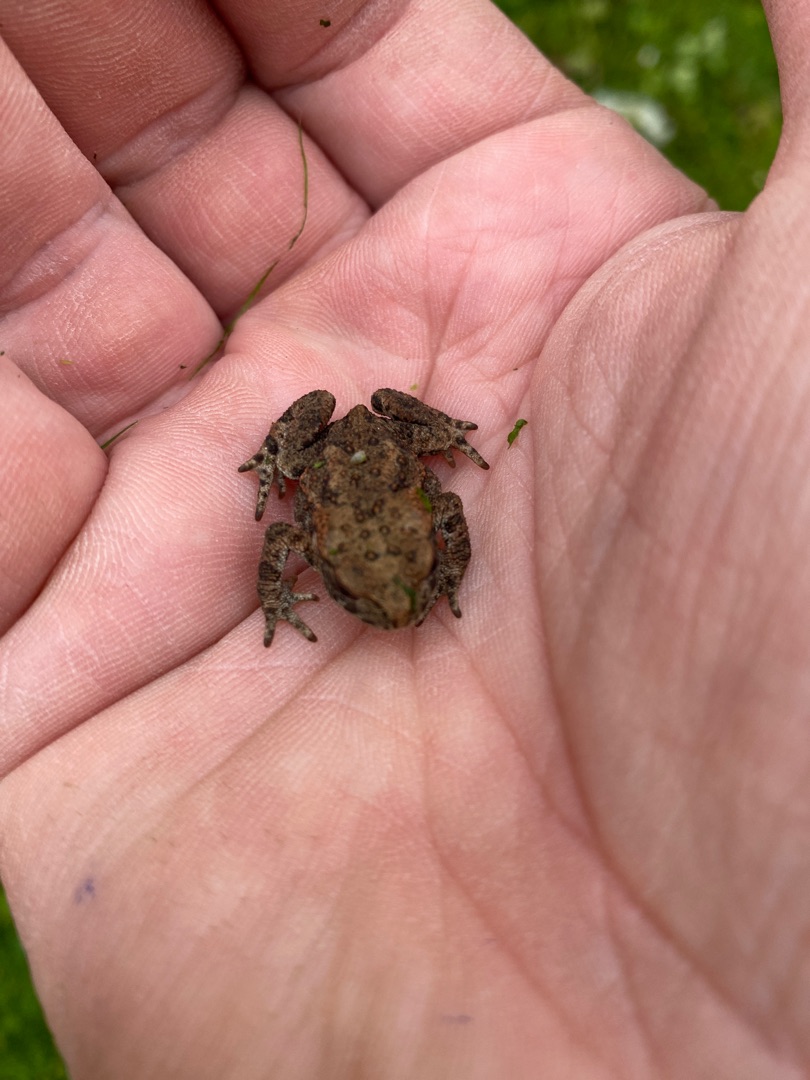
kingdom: Animalia
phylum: Chordata
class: Amphibia
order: Anura
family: Bufonidae
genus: Bufo
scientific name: Bufo bufo
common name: Skrubtudse
